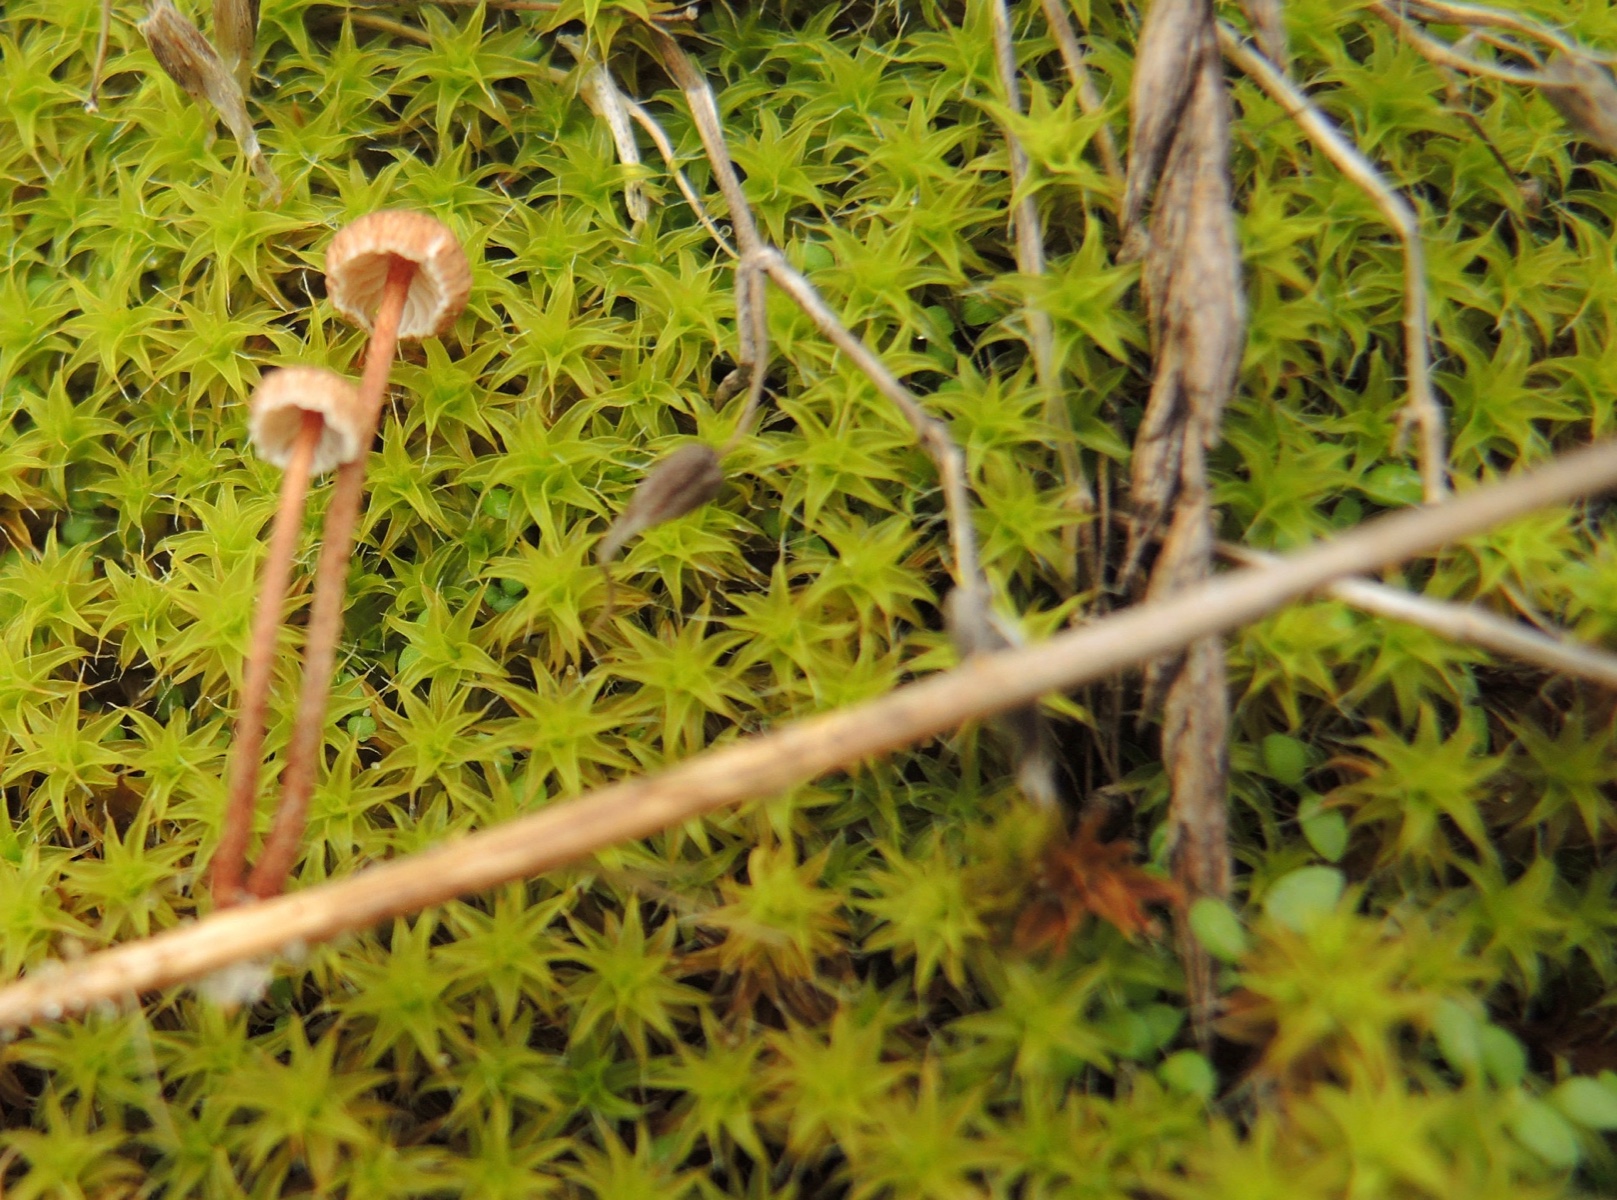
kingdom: Fungi
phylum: Basidiomycota
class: Agaricomycetes
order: Agaricales
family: Marasmiaceae
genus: Crinipellis
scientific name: Crinipellis scabella
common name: børstefod
